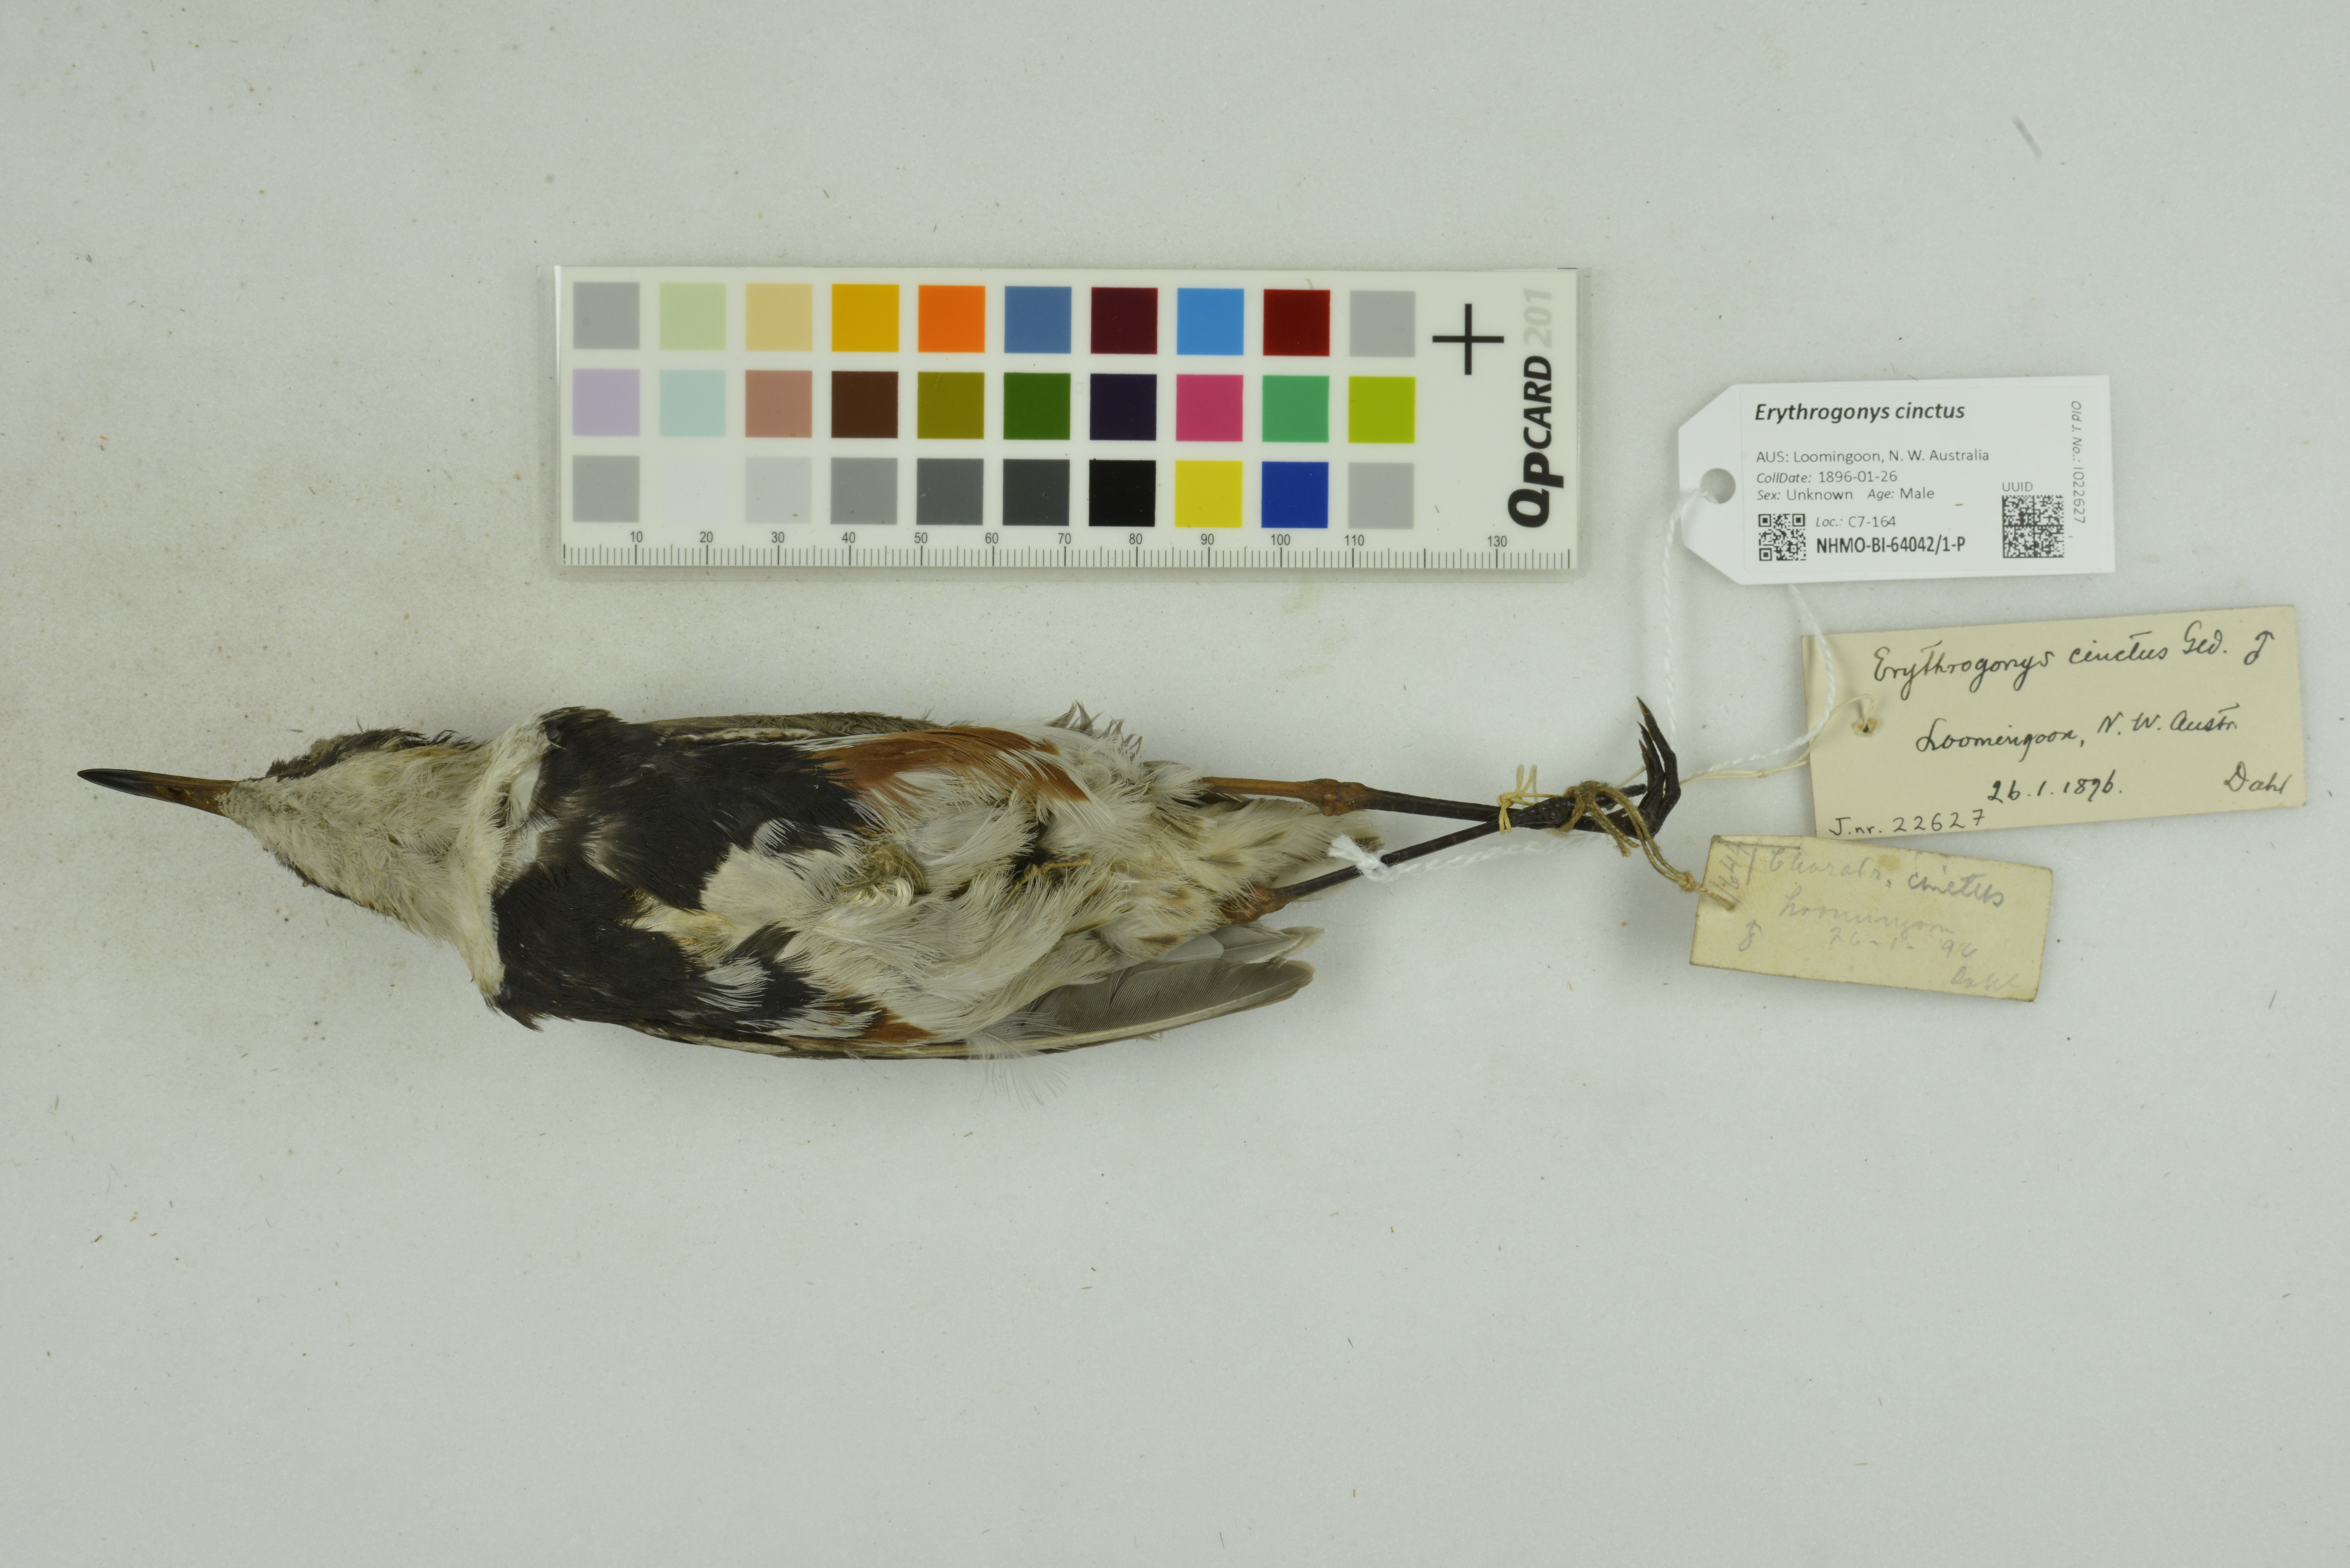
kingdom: Animalia
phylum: Chordata
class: Aves
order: Charadriiformes
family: Charadriidae
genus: Erythrogonys
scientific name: Erythrogonys cinctus
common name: Red-kneed dotterel
